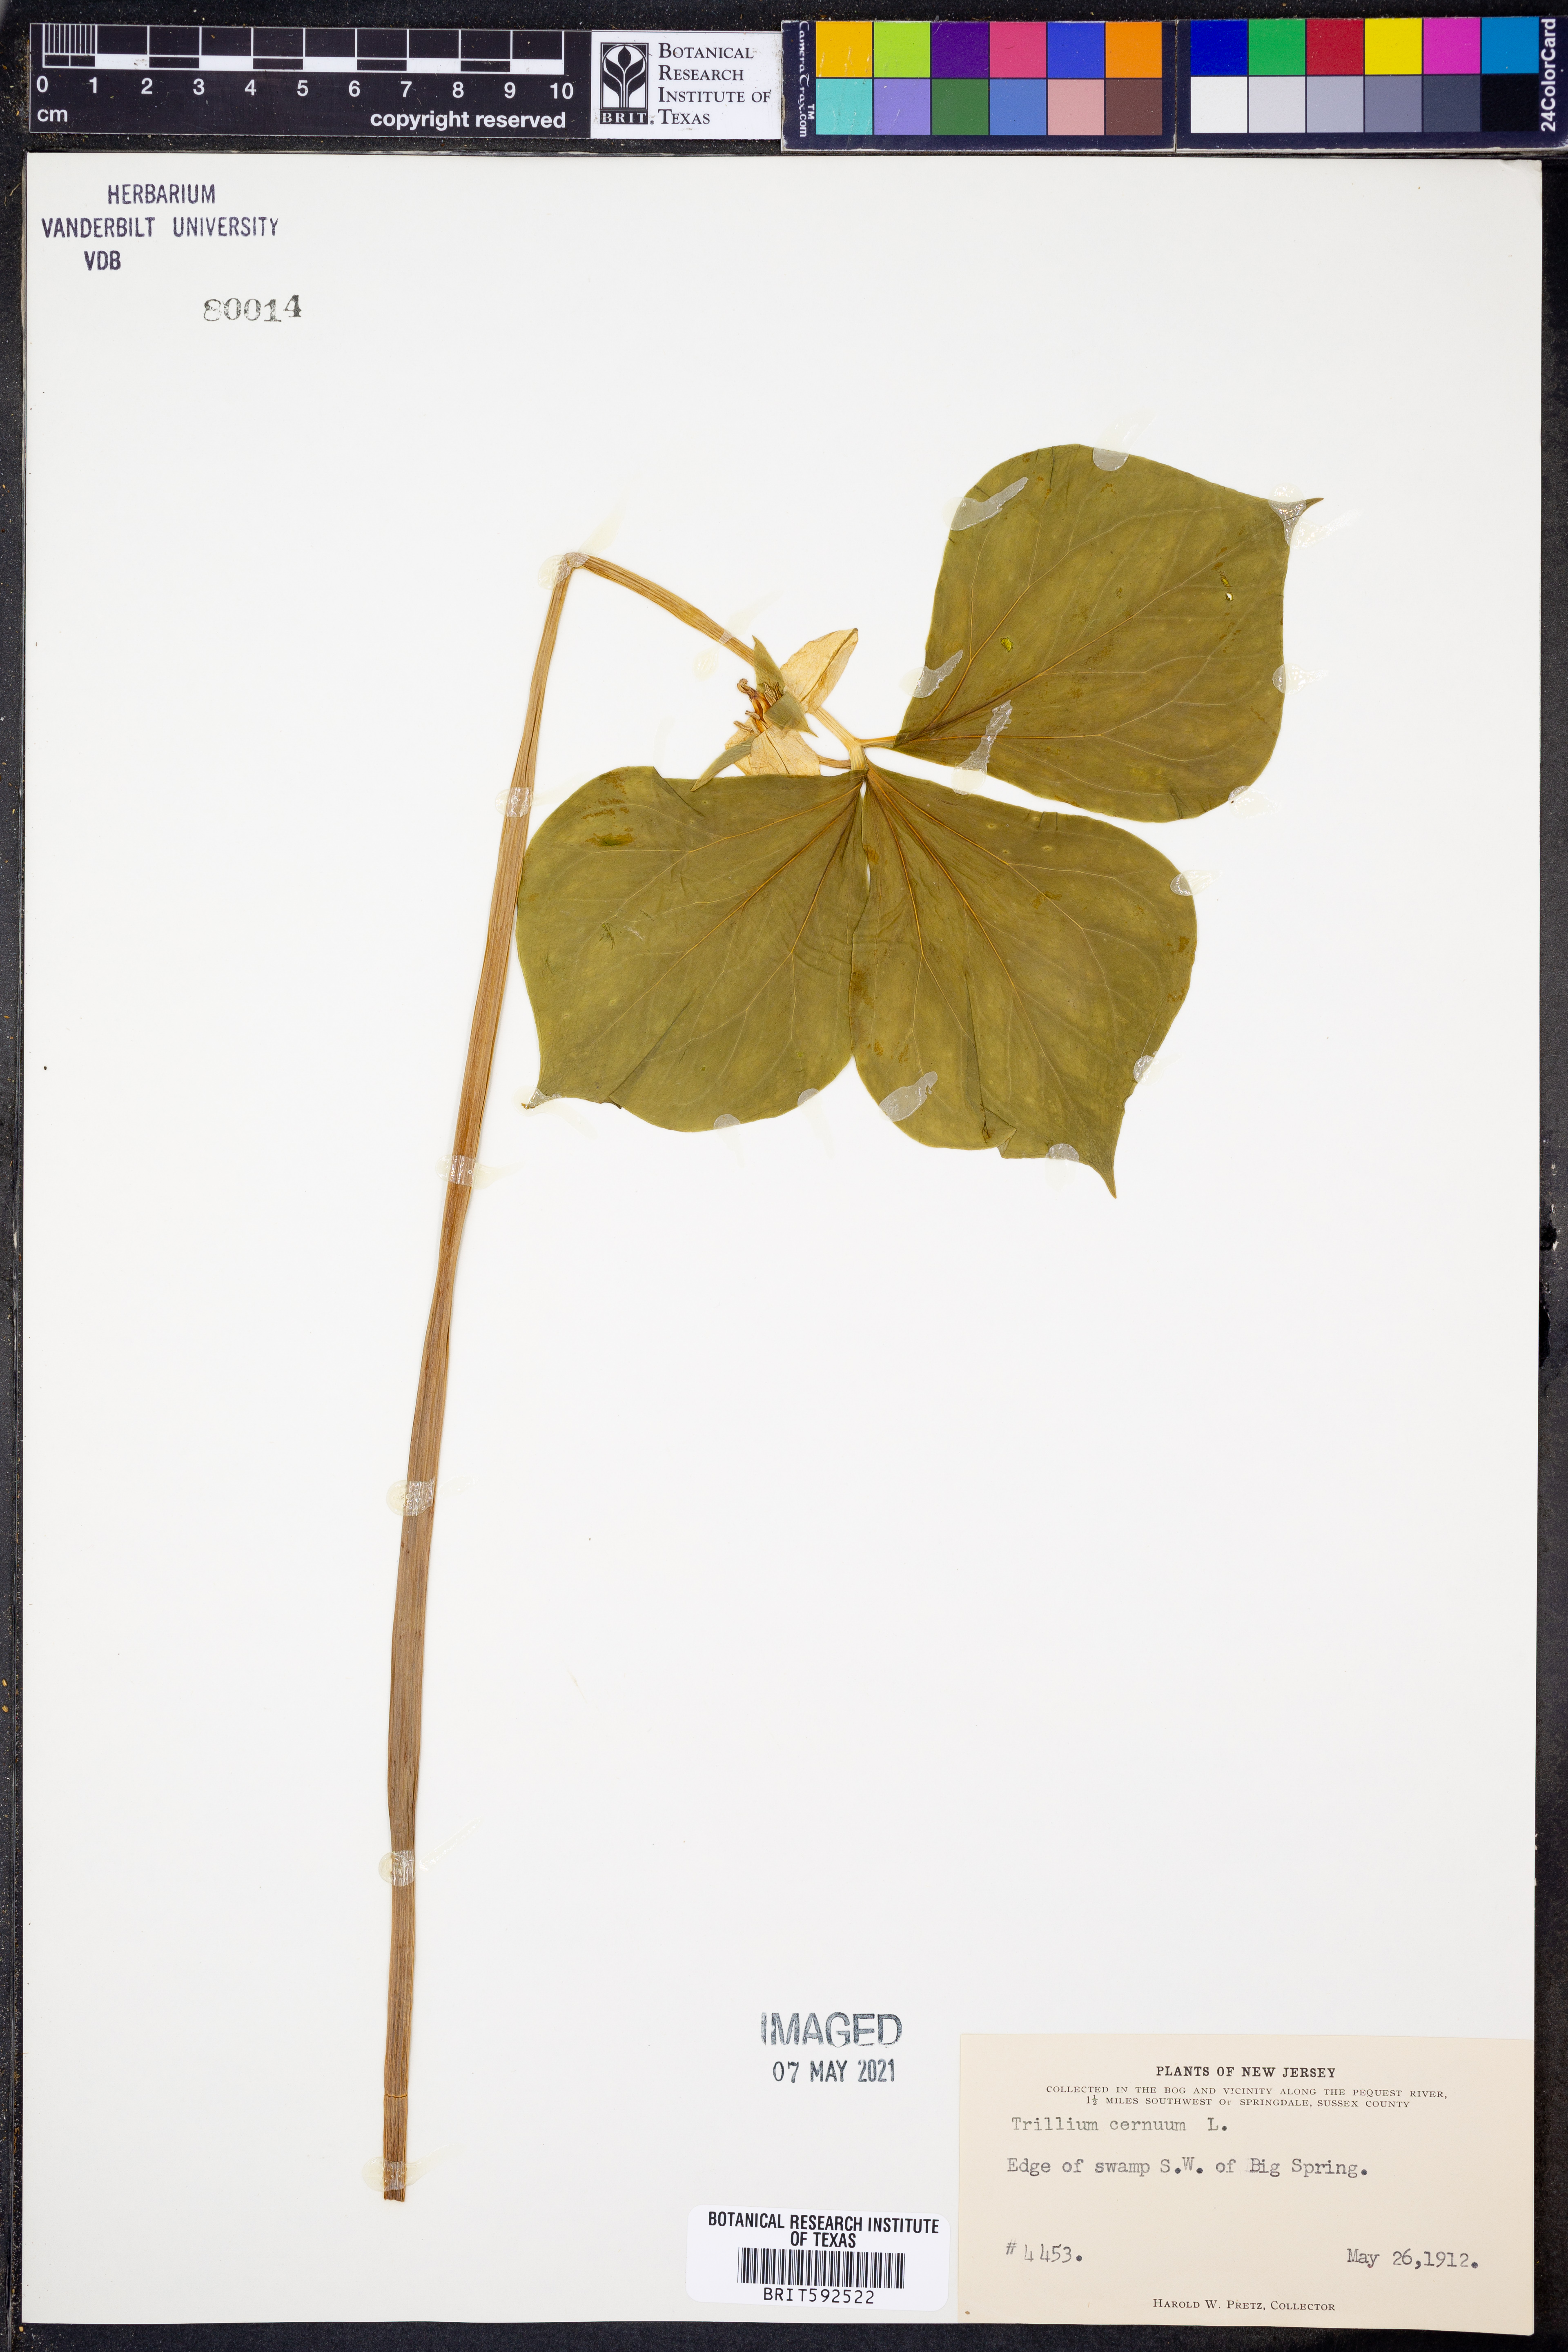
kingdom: Plantae
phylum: Tracheophyta
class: Liliopsida
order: Liliales
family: Melanthiaceae
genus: Trillium
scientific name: Trillium cernuum
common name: Nodding trillium
